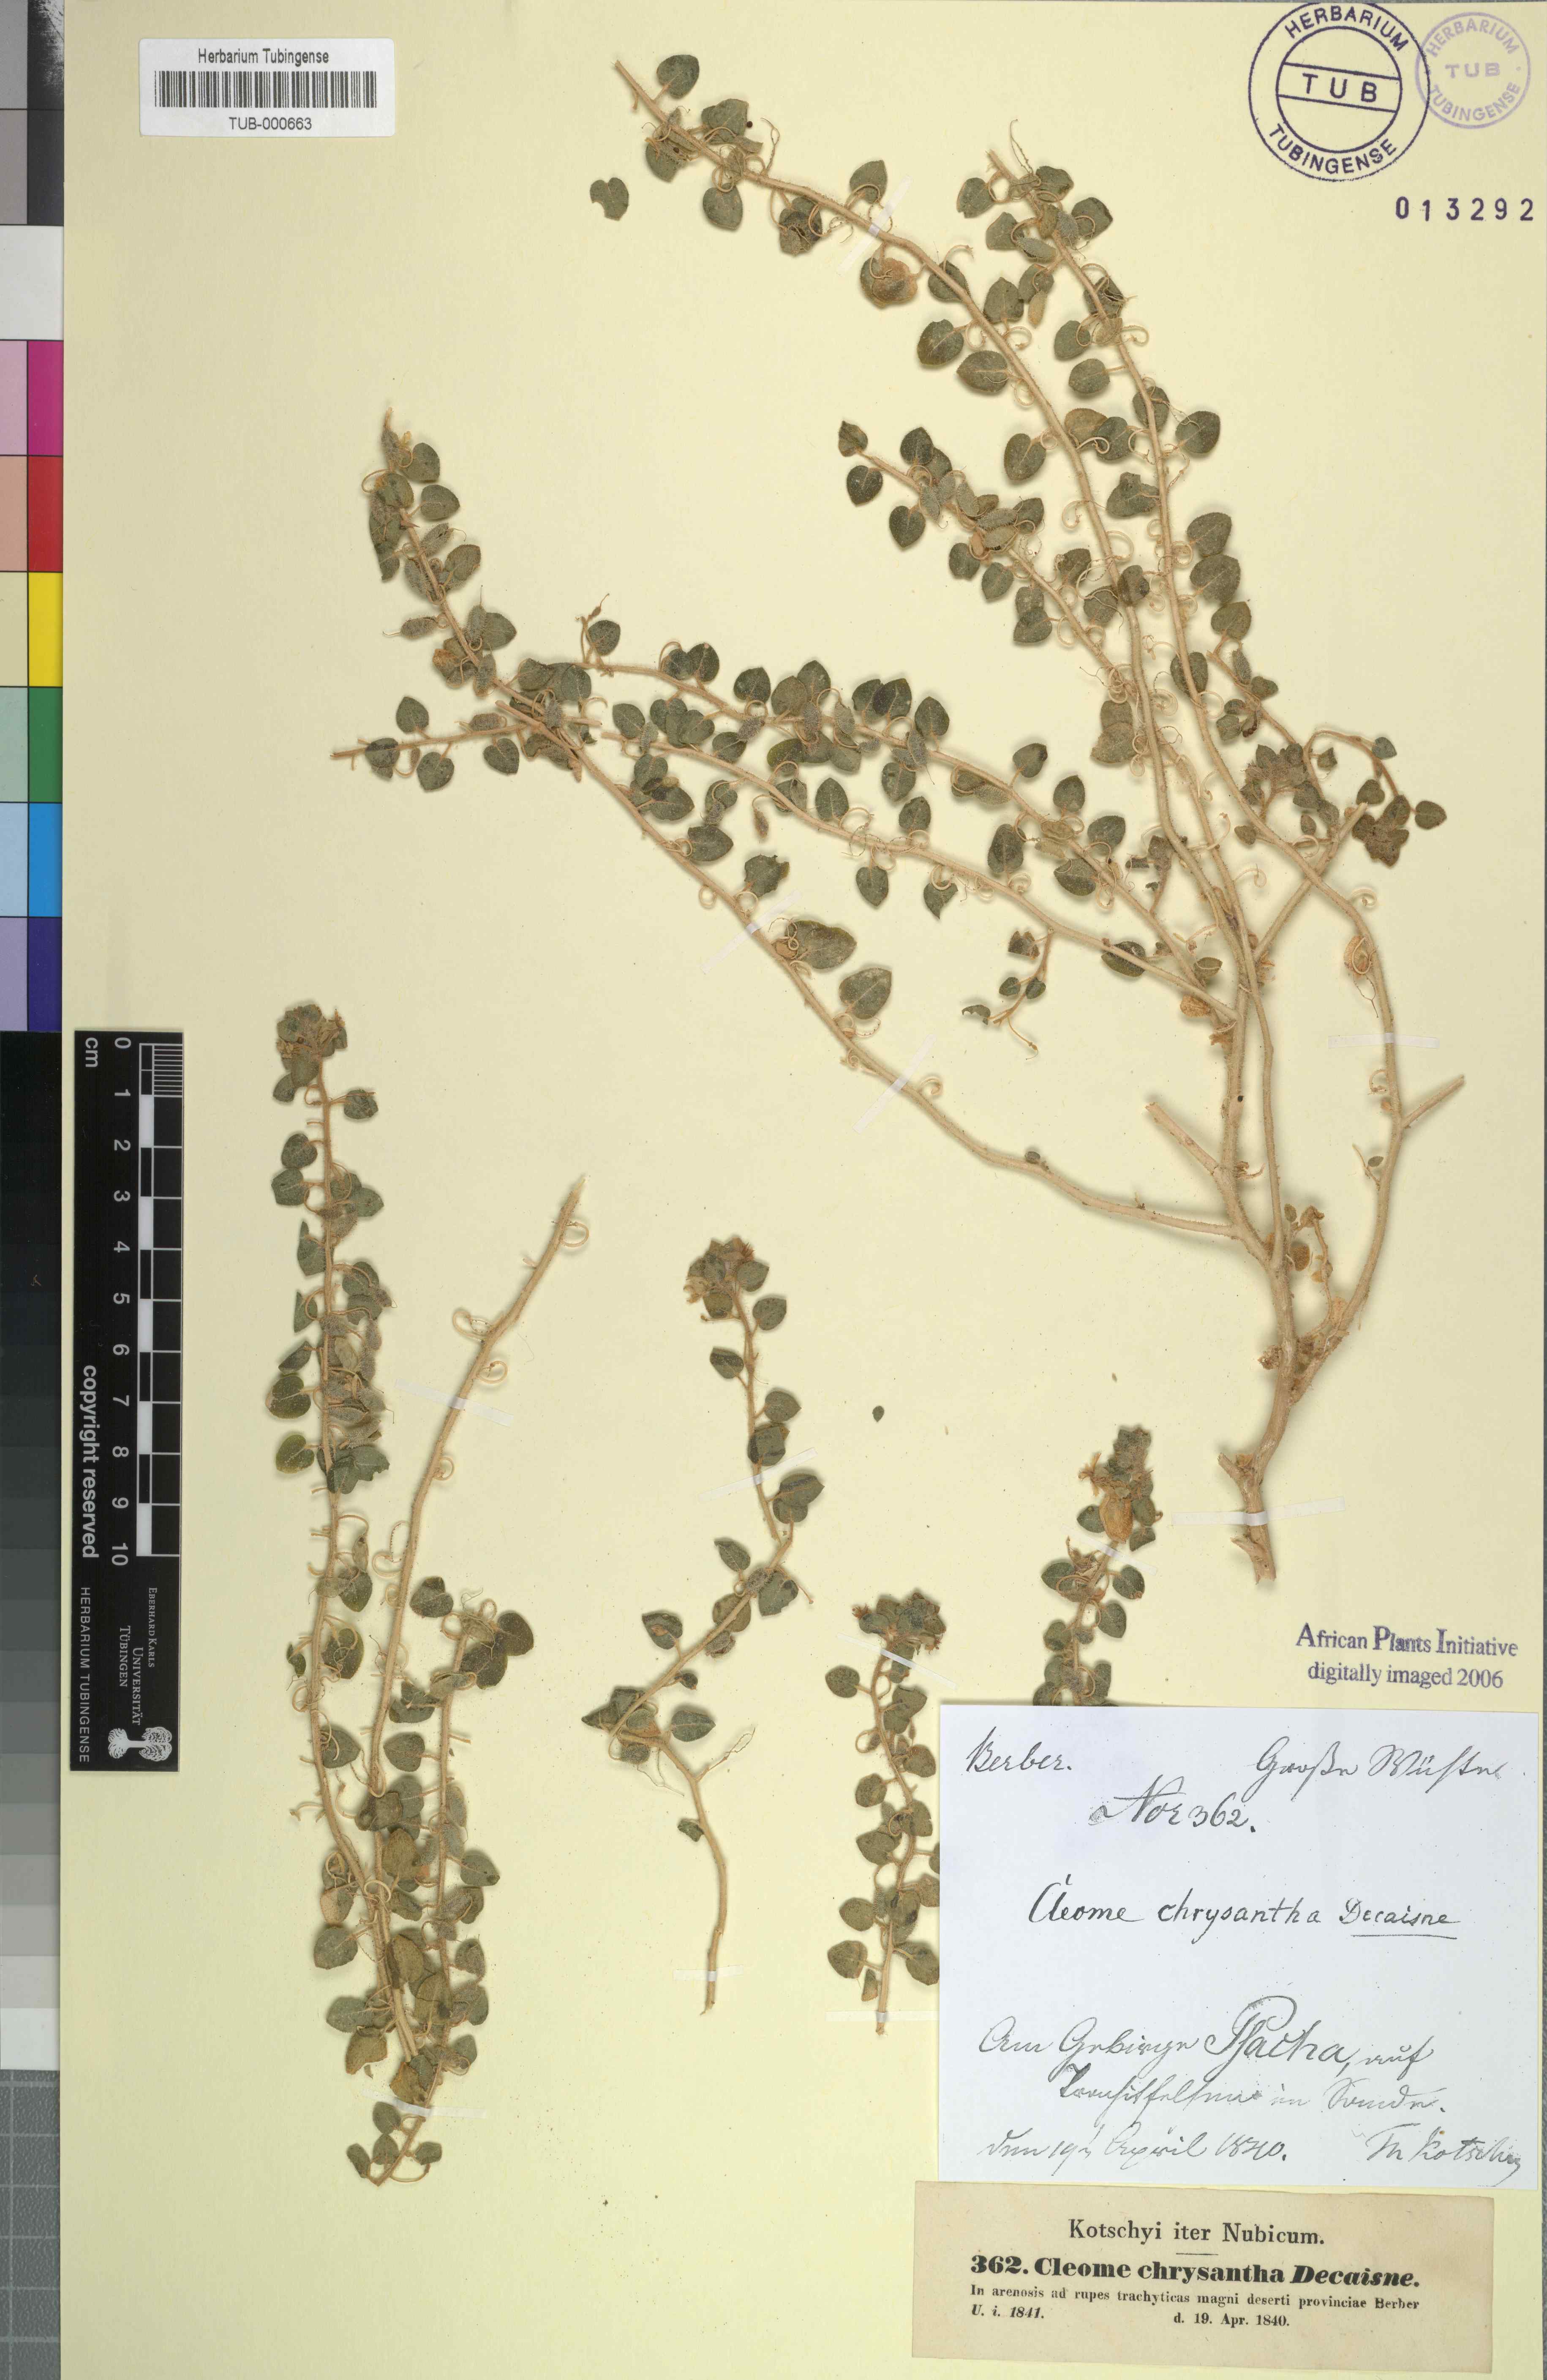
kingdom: Plantae
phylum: Tracheophyta
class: Magnoliopsida
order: Brassicales
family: Cleomaceae
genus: Thulinella
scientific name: Thulinella chrysantha
